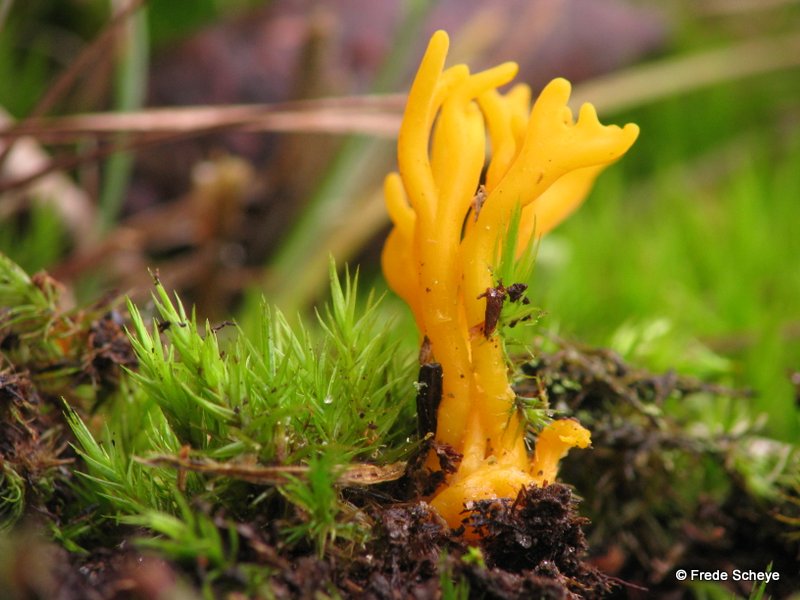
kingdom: Fungi
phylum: Basidiomycota
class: Dacrymycetes
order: Dacrymycetales
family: Dacrymycetaceae
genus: Calocera
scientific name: Calocera viscosa
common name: almindelig guldgaffel
